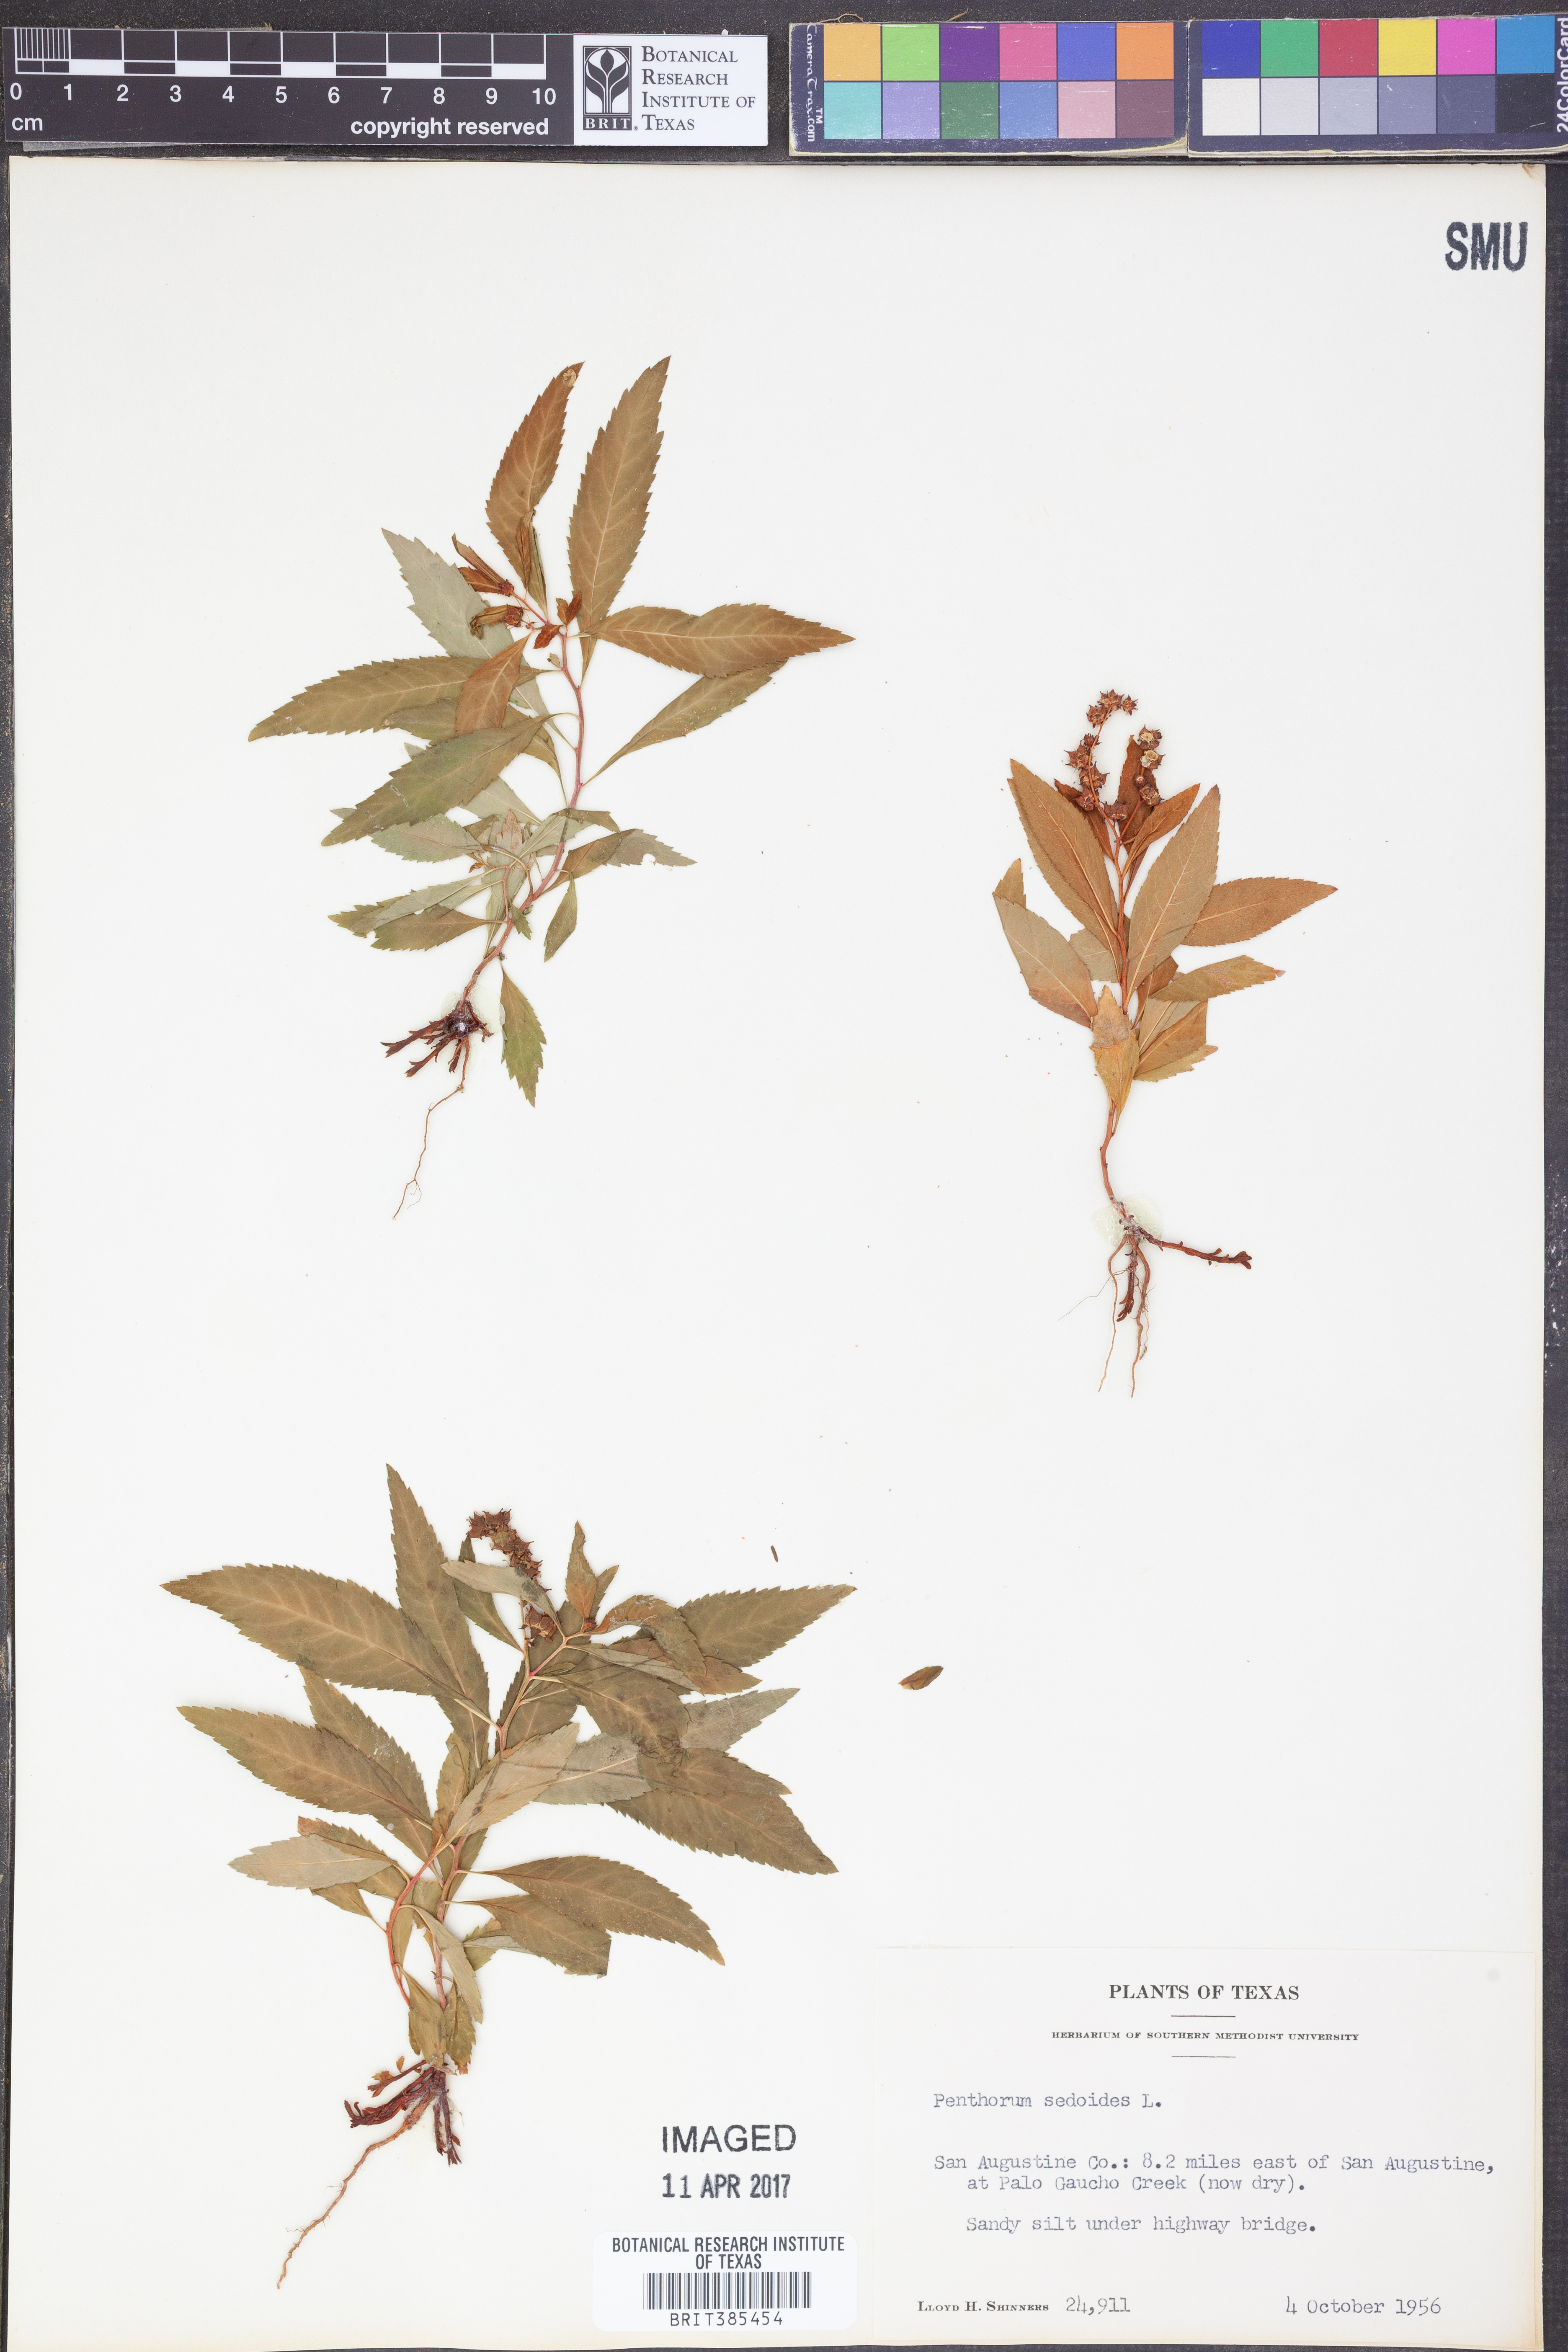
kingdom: Plantae
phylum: Tracheophyta
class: Magnoliopsida
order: Saxifragales
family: Penthoraceae
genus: Penthorum
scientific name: Penthorum sedoides
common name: Ditch stonecrop
